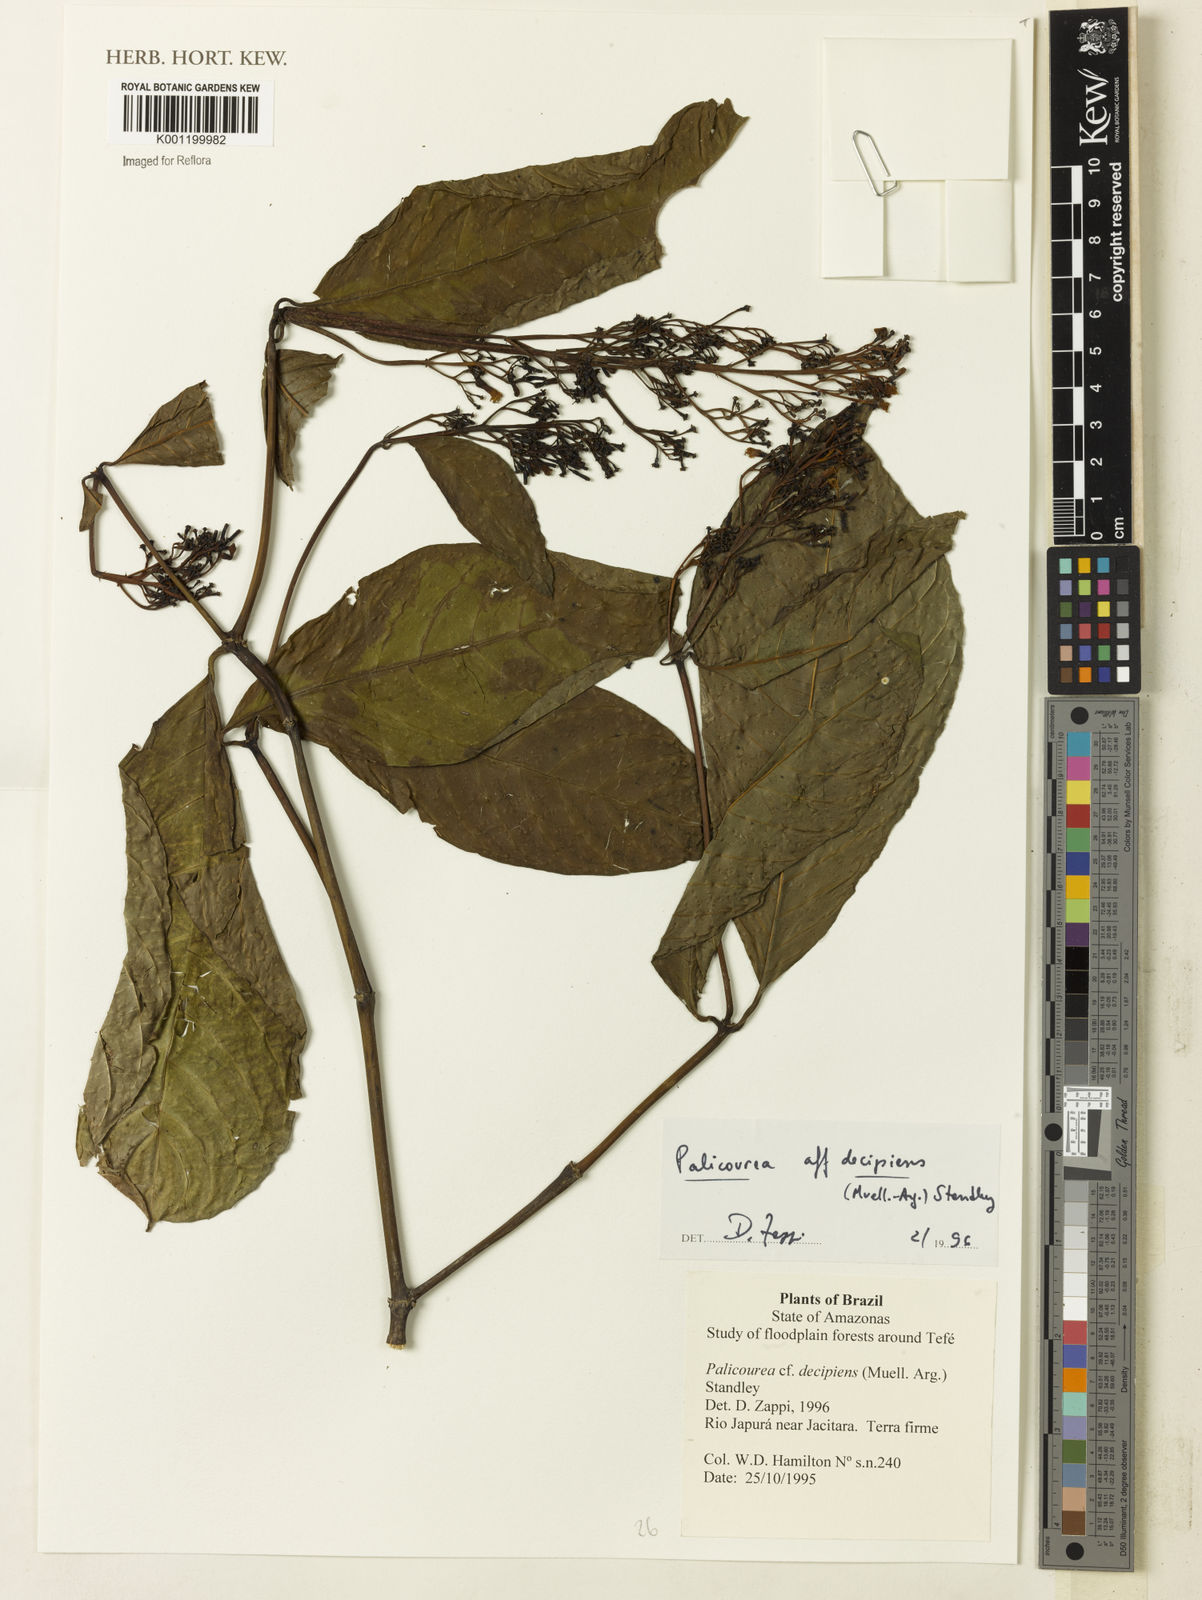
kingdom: Plantae
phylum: Tracheophyta
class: Magnoliopsida
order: Gentianales
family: Rubiaceae
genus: Palicourea
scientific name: Palicourea
